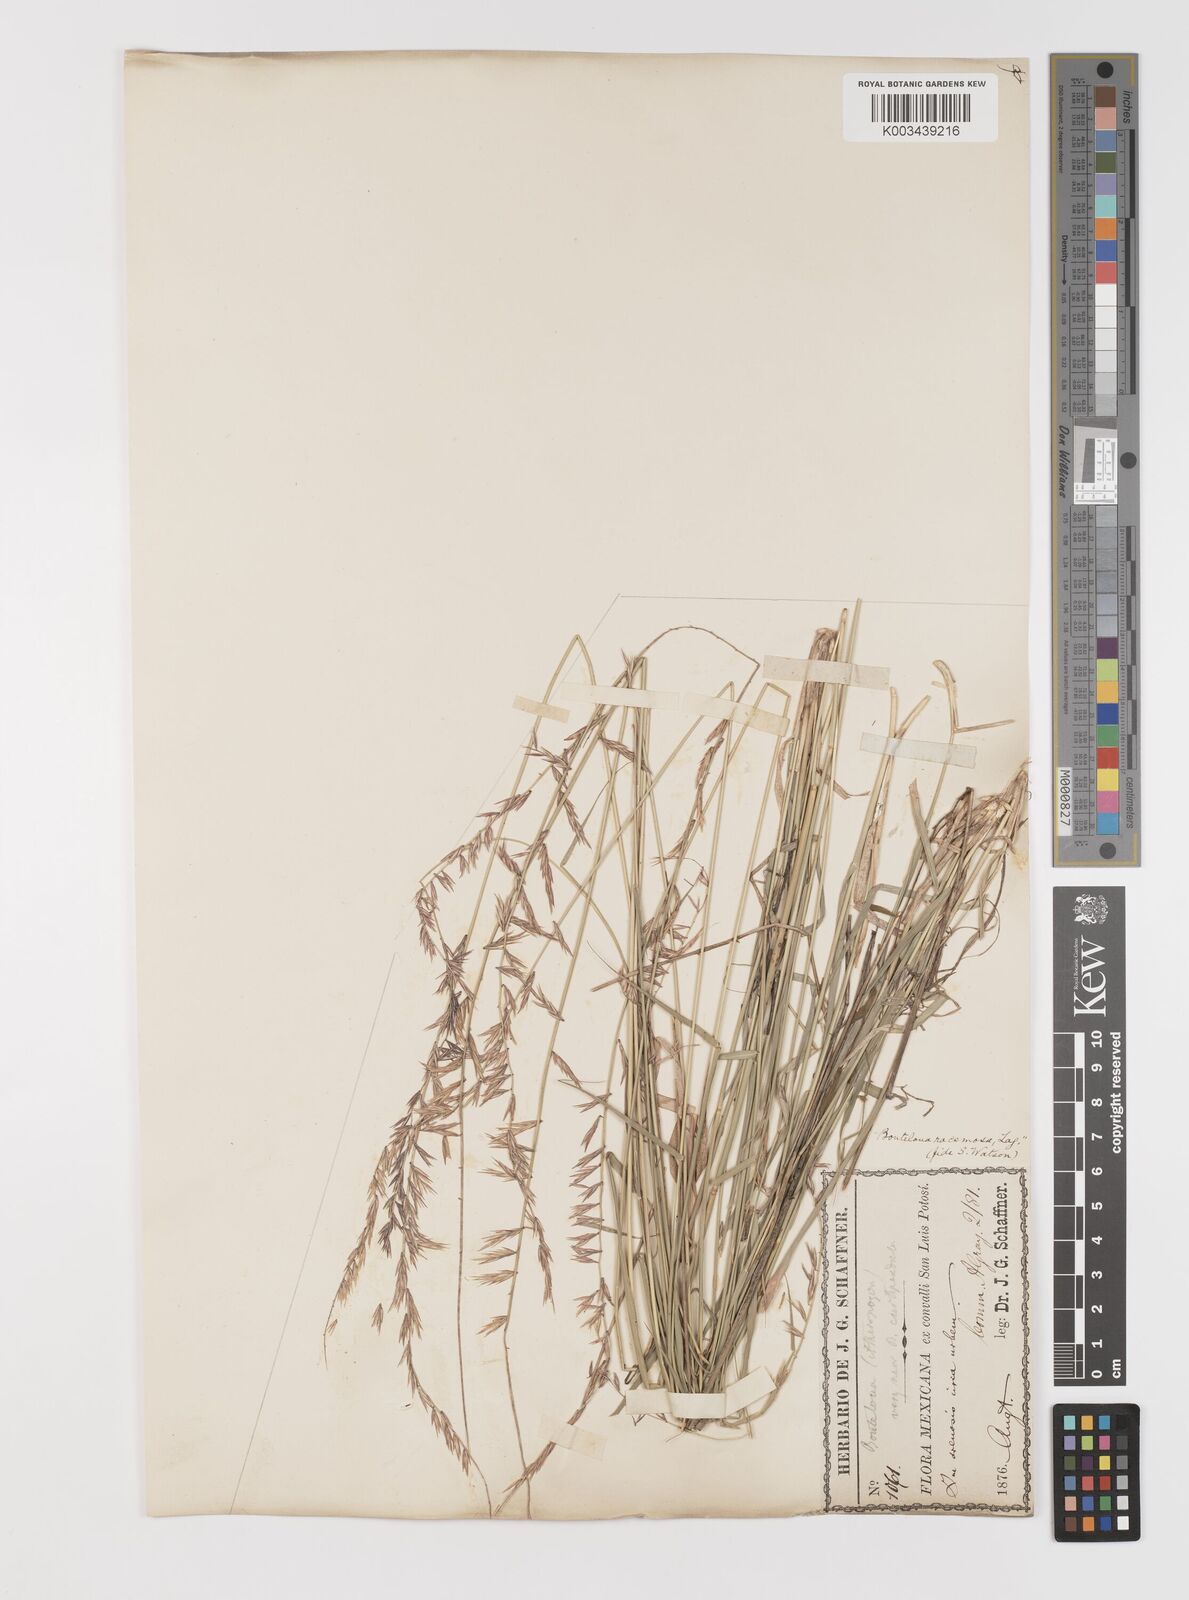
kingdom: Plantae
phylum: Tracheophyta
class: Liliopsida
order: Poales
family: Poaceae
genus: Bouteloua
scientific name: Bouteloua curtipendula
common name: Side-oats grama
